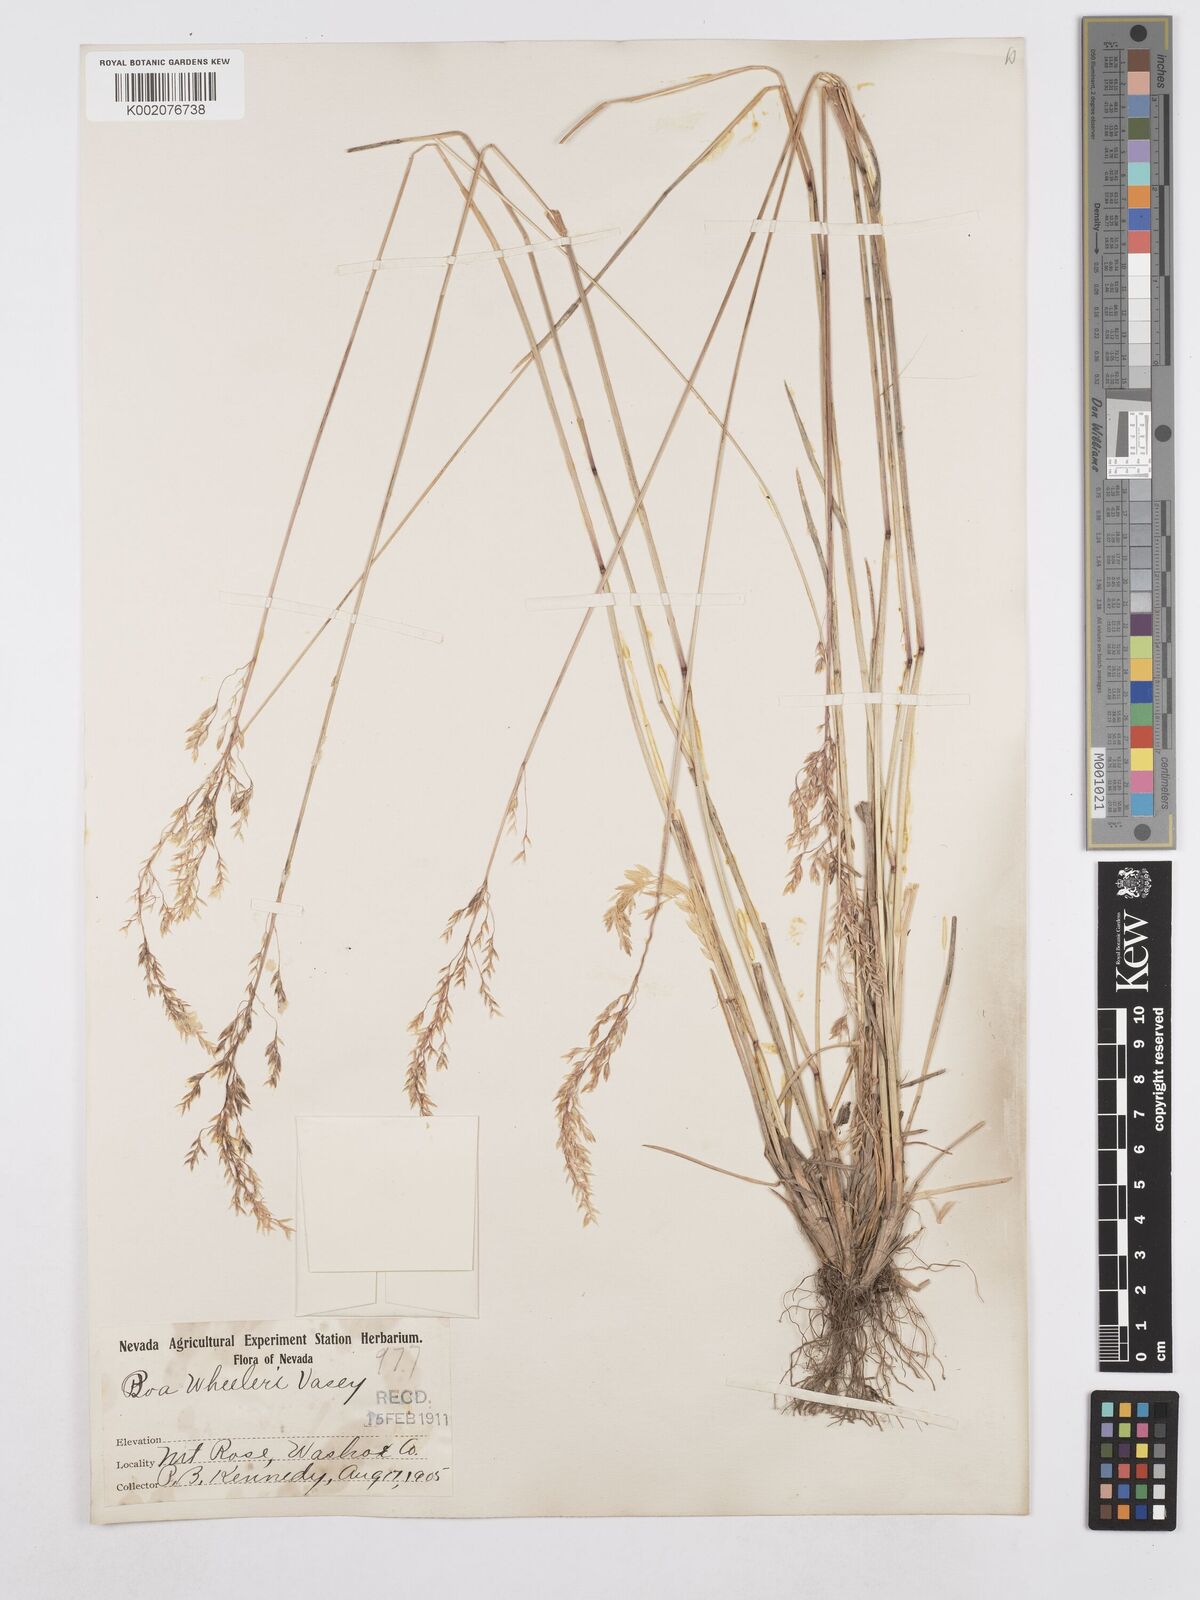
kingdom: Plantae
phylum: Tracheophyta
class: Liliopsida
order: Poales
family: Poaceae
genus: Poa
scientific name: Poa wheeleri
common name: Wheeler's bluegrass
